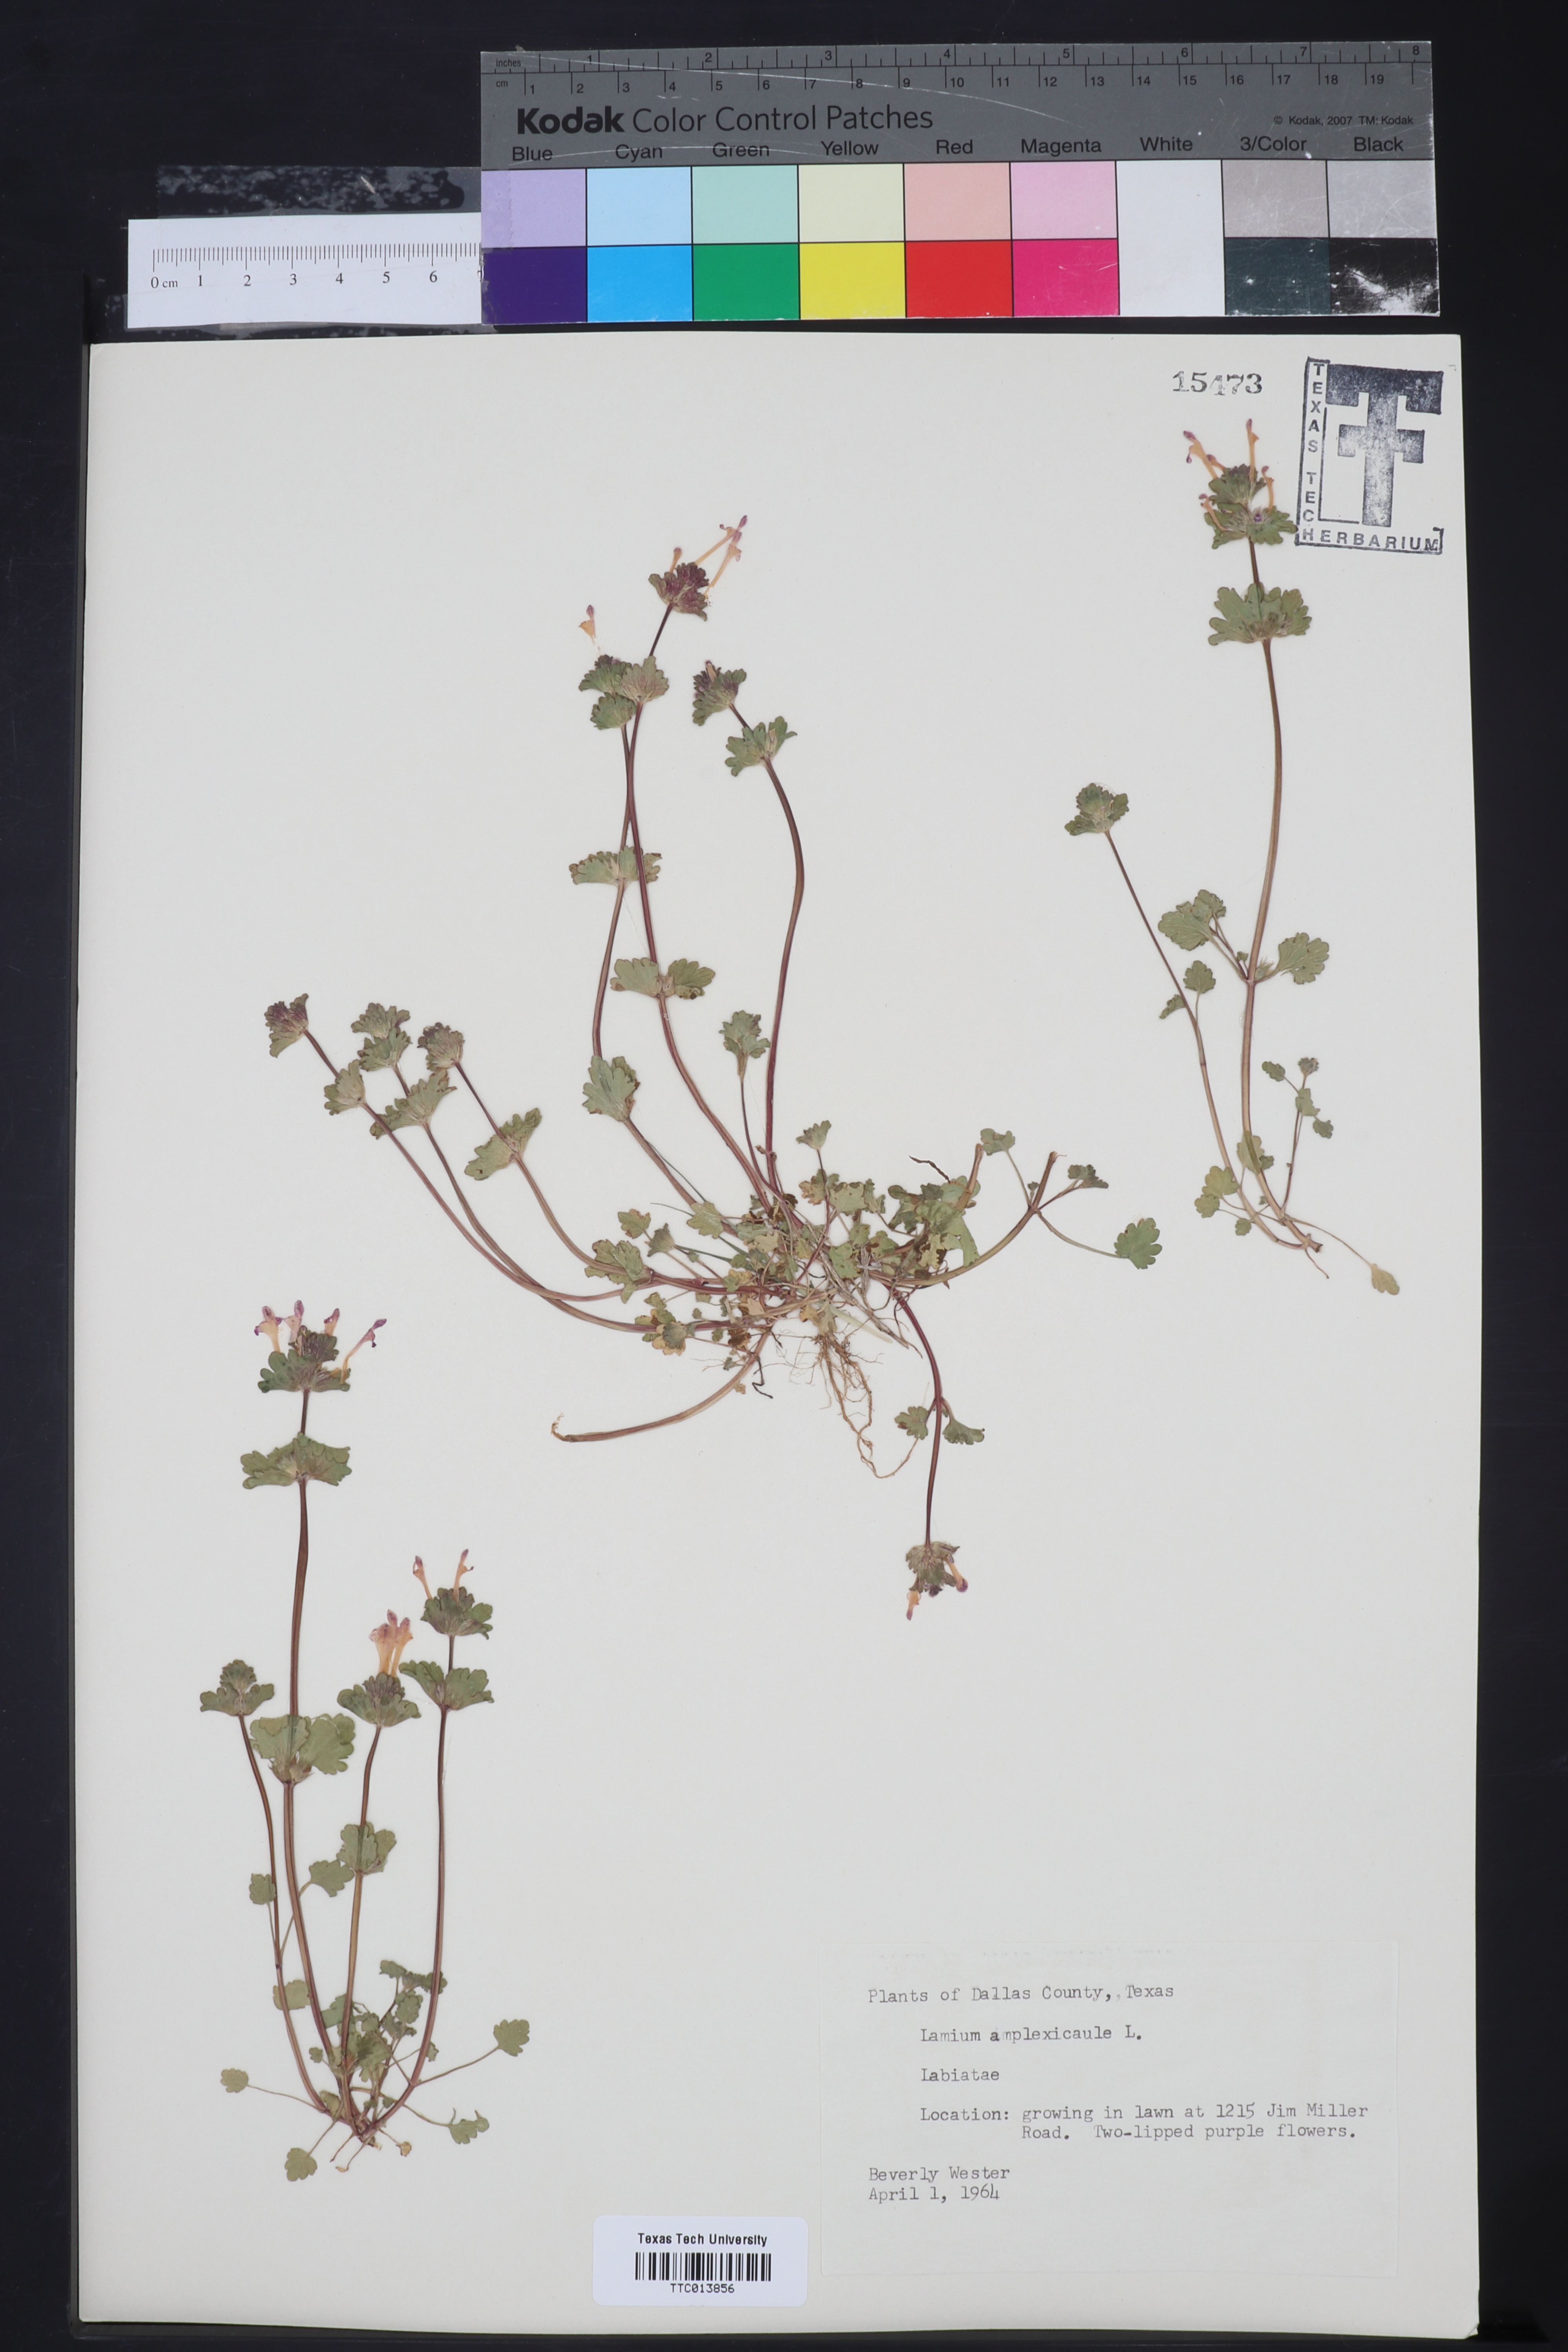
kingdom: Plantae
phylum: Tracheophyta
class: Magnoliopsida
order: Lamiales
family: Lamiaceae
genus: Lamium
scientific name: Lamium amplexicaule
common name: Henbit dead-nettle
